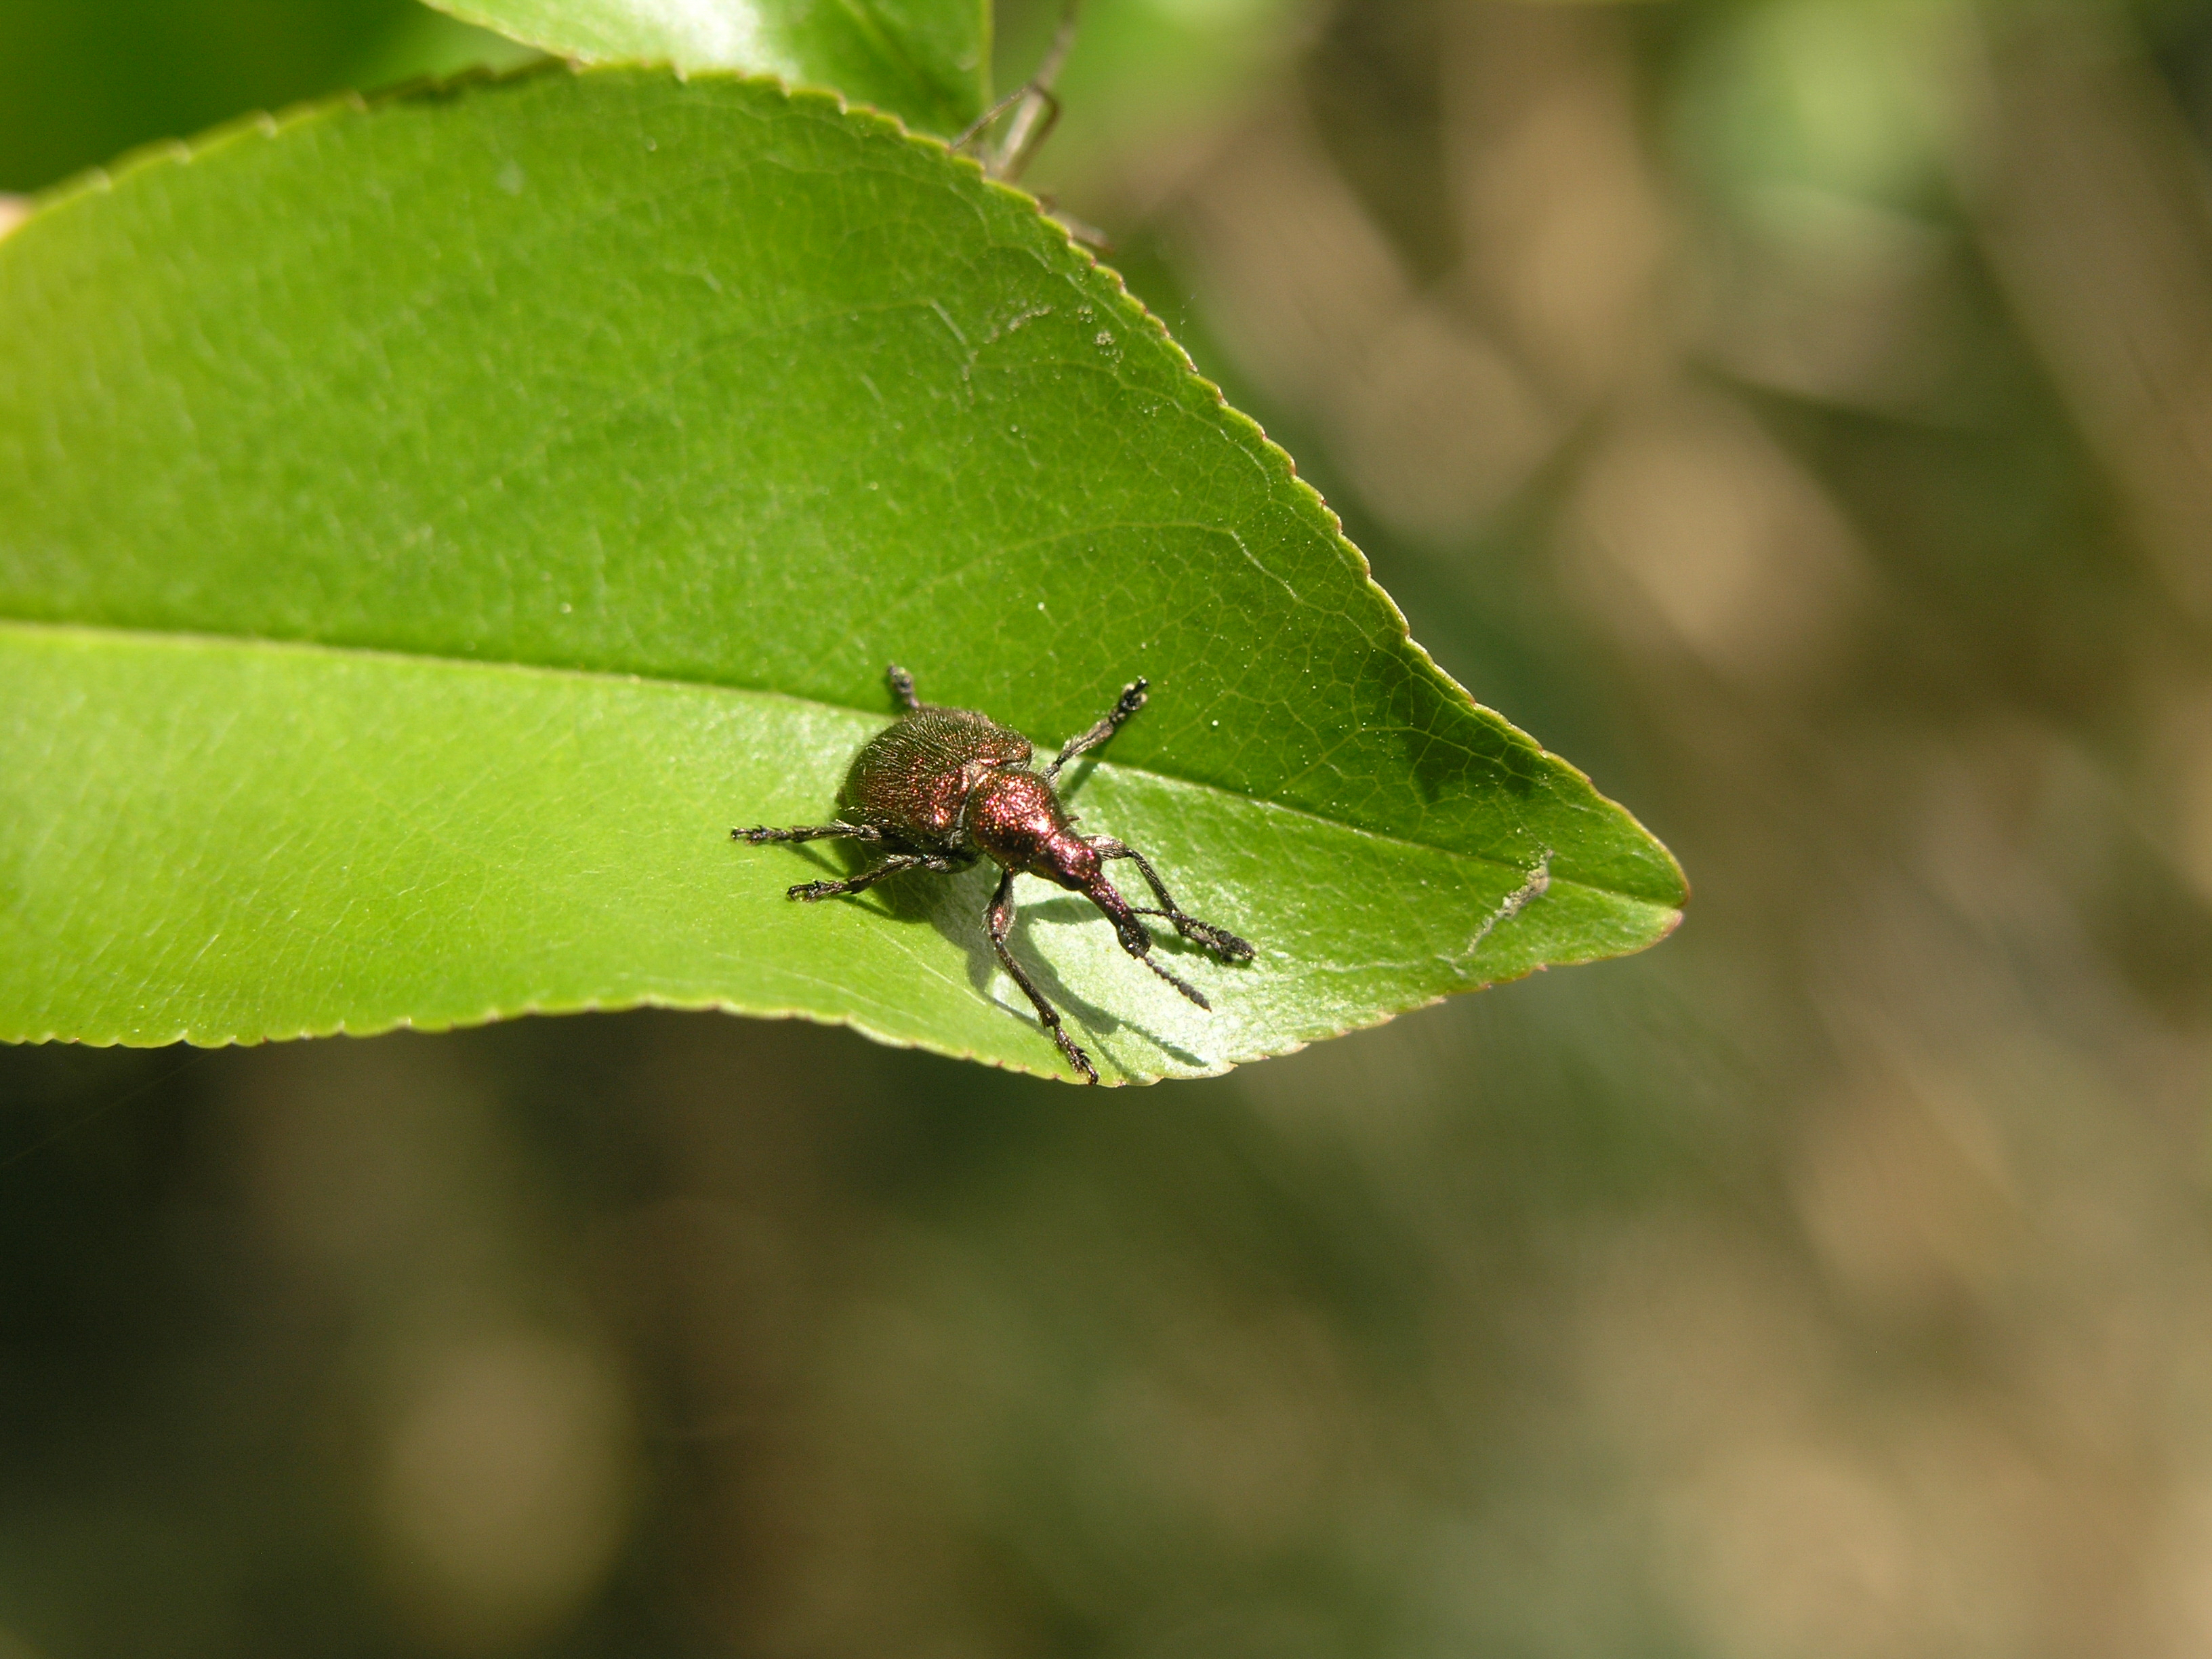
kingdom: Animalia
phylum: Arthropoda
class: Insecta
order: Coleoptera
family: Curculionidae
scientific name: Curculionidae
